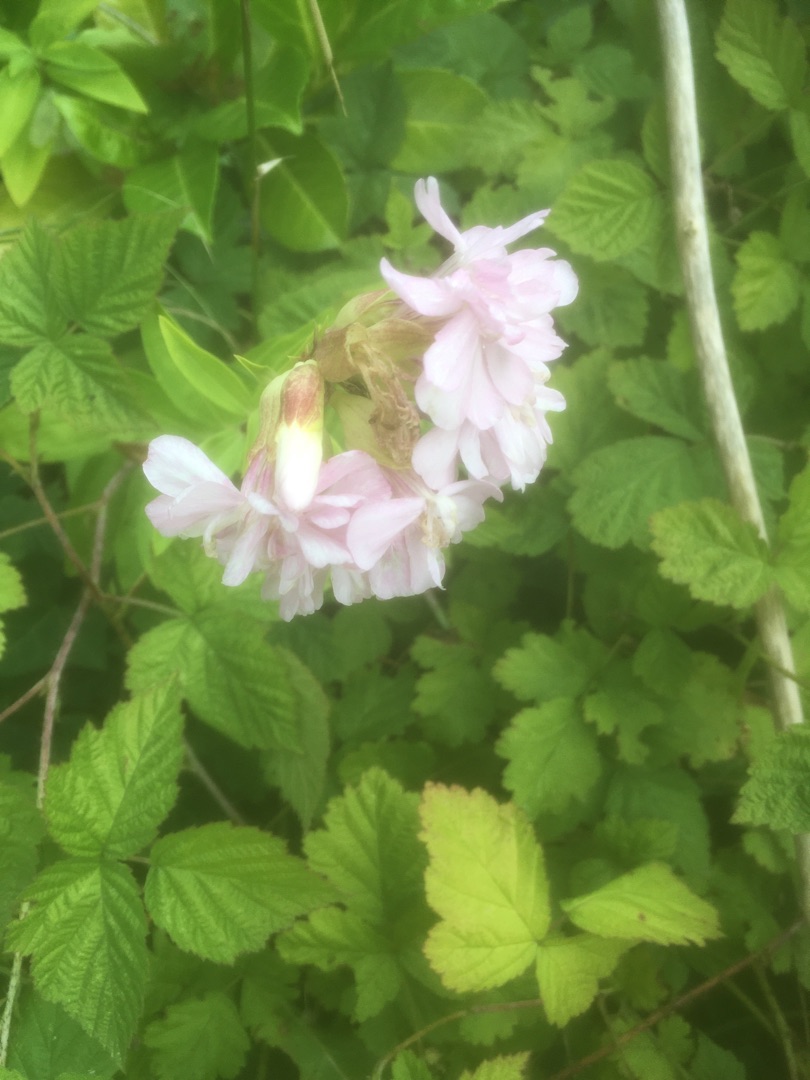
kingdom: Plantae
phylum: Tracheophyta
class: Magnoliopsida
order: Caryophyllales
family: Caryophyllaceae
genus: Saponaria
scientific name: Saponaria officinalis
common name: Sæbeurt
